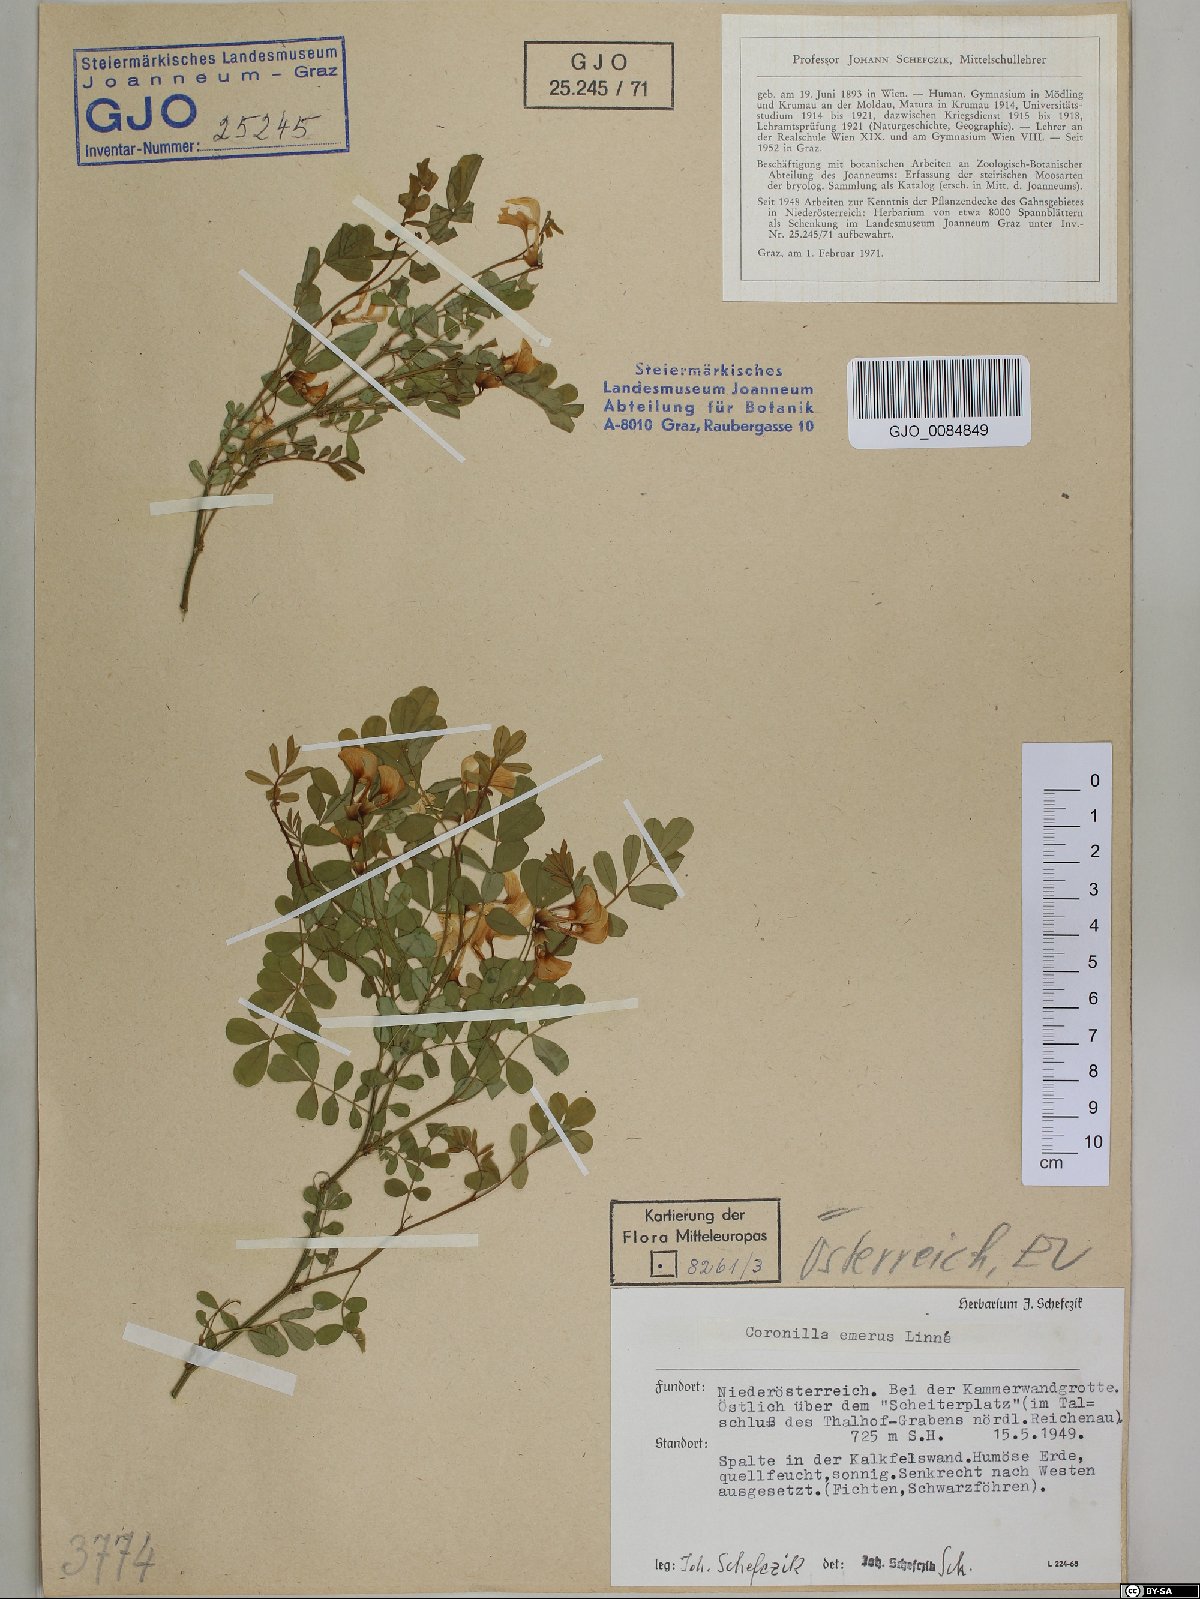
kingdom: Plantae
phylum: Tracheophyta
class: Magnoliopsida
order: Fabales
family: Fabaceae
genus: Hippocrepis
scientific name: Hippocrepis emerus
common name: Scorpion senna
